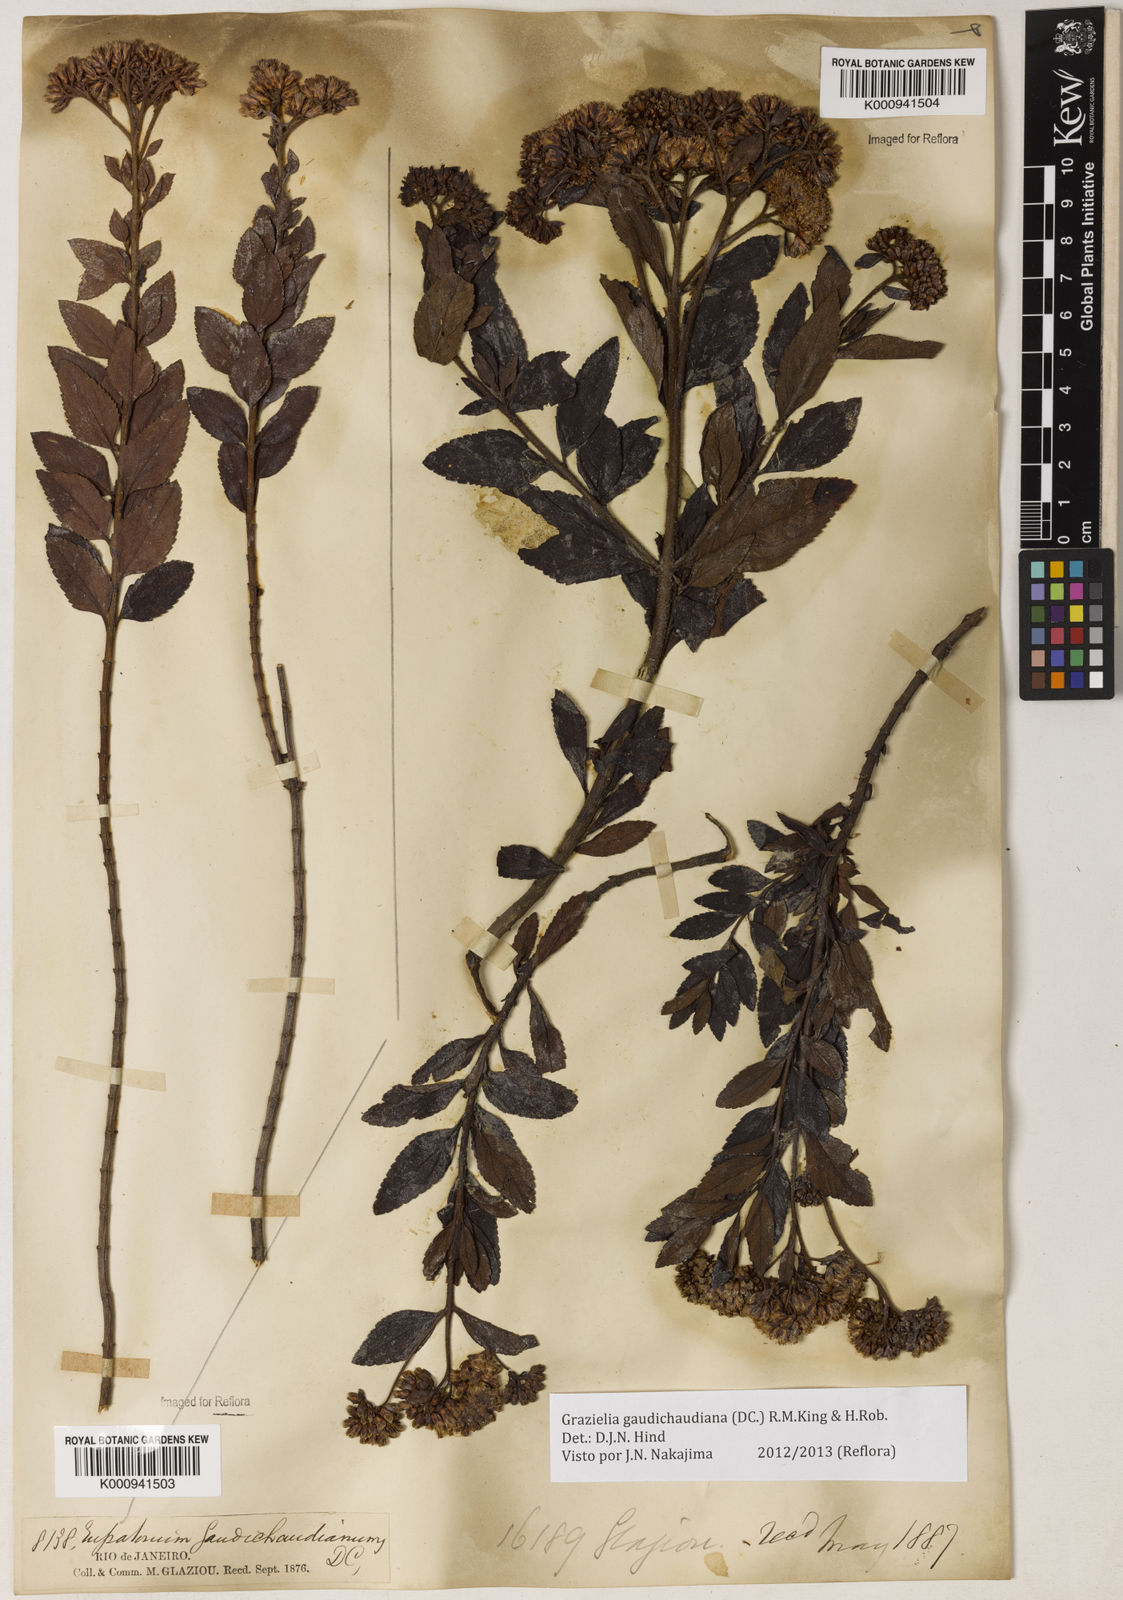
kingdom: Plantae
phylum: Tracheophyta
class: Magnoliopsida
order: Asterales
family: Asteraceae
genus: Grazielia
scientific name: Grazielia
